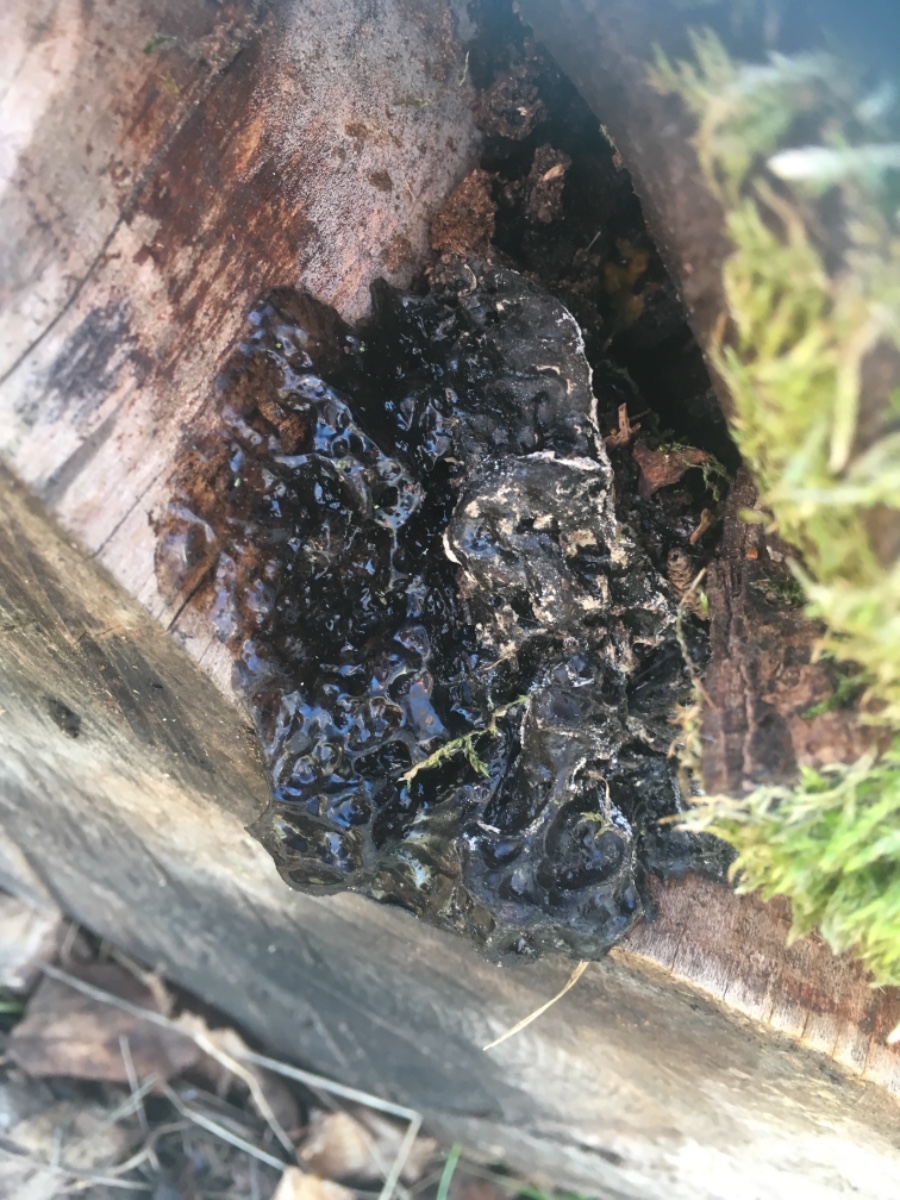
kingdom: Fungi
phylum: Ascomycota
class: Lecanoromycetes
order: Lecanorales
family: Cladoniaceae
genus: Cladonia
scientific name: Cladonia
